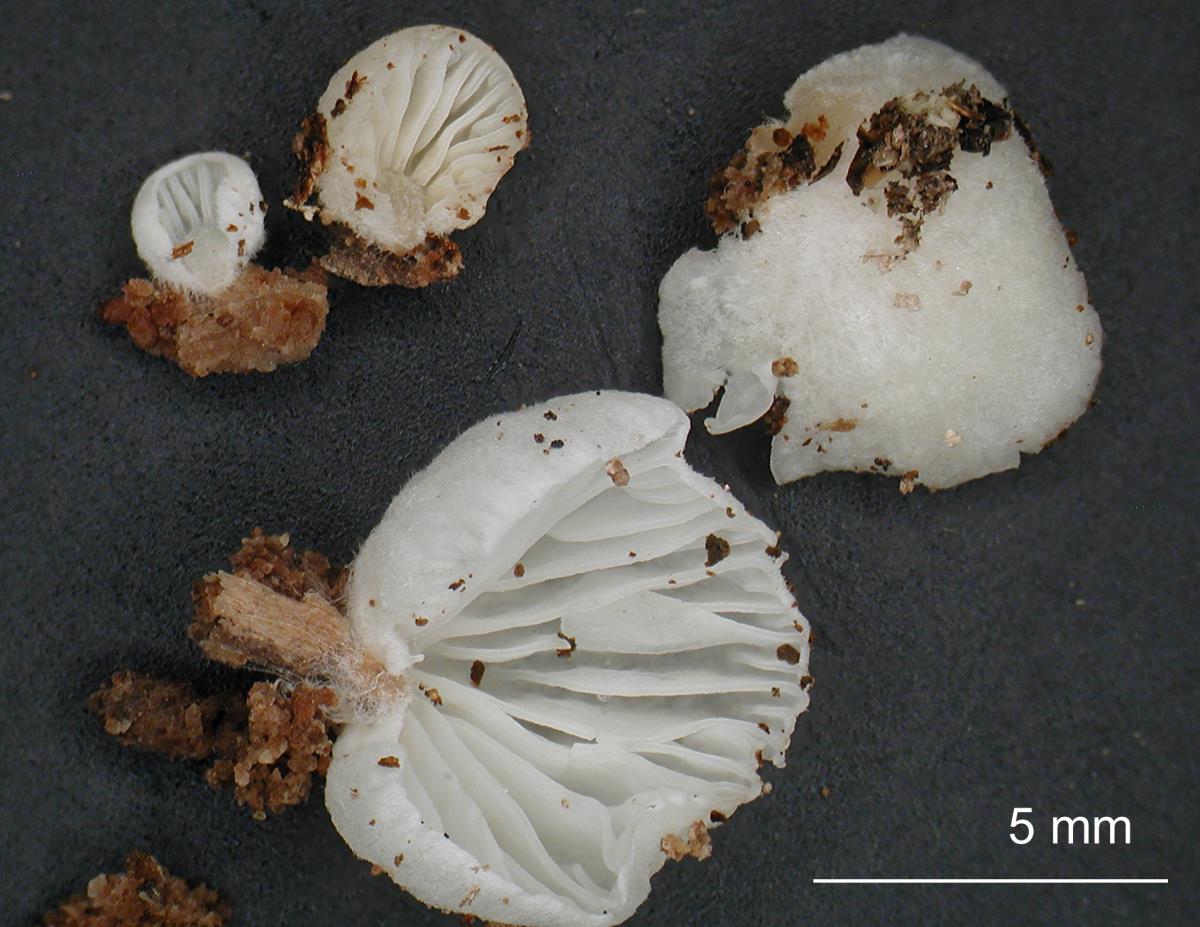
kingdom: Fungi
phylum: Basidiomycota
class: Agaricomycetes
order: Agaricales
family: Hygrophoraceae
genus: Arrhenia
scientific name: Arrhenia
